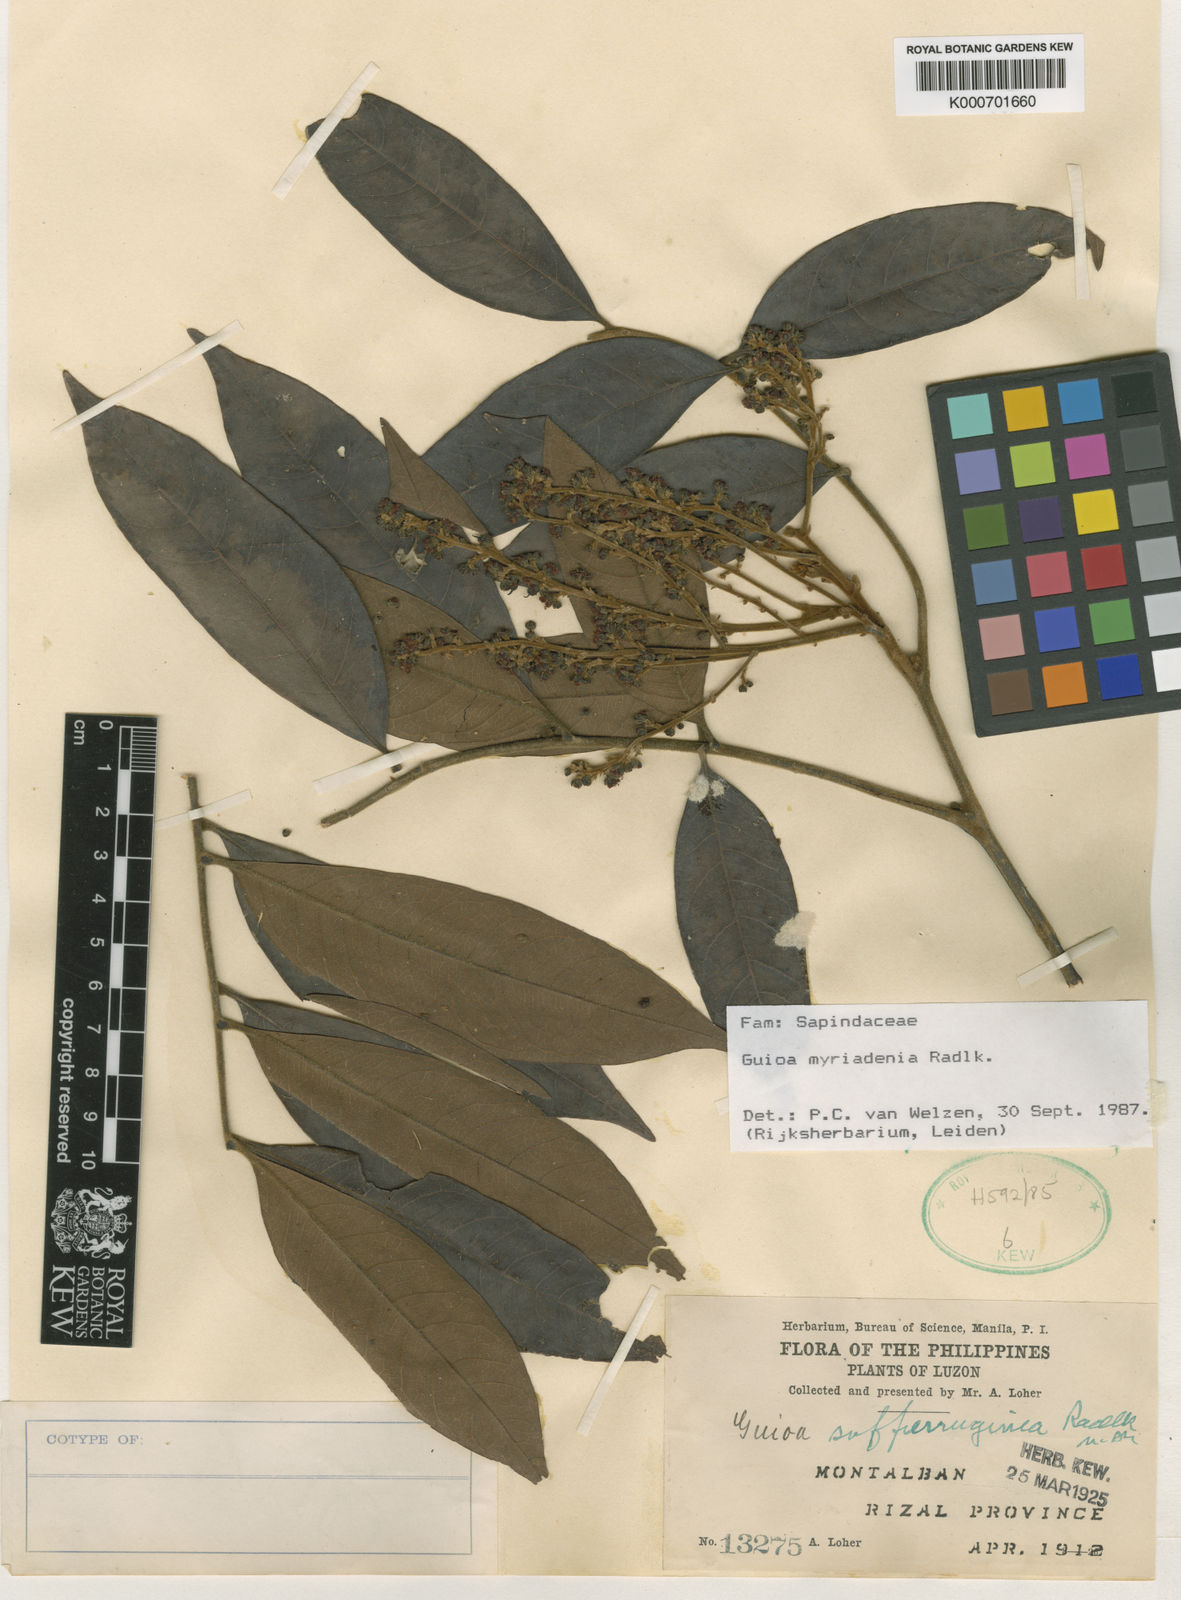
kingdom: Plantae
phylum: Tracheophyta
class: Magnoliopsida
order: Sapindales
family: Sapindaceae
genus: Guioa
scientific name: Guioa myriadenia
